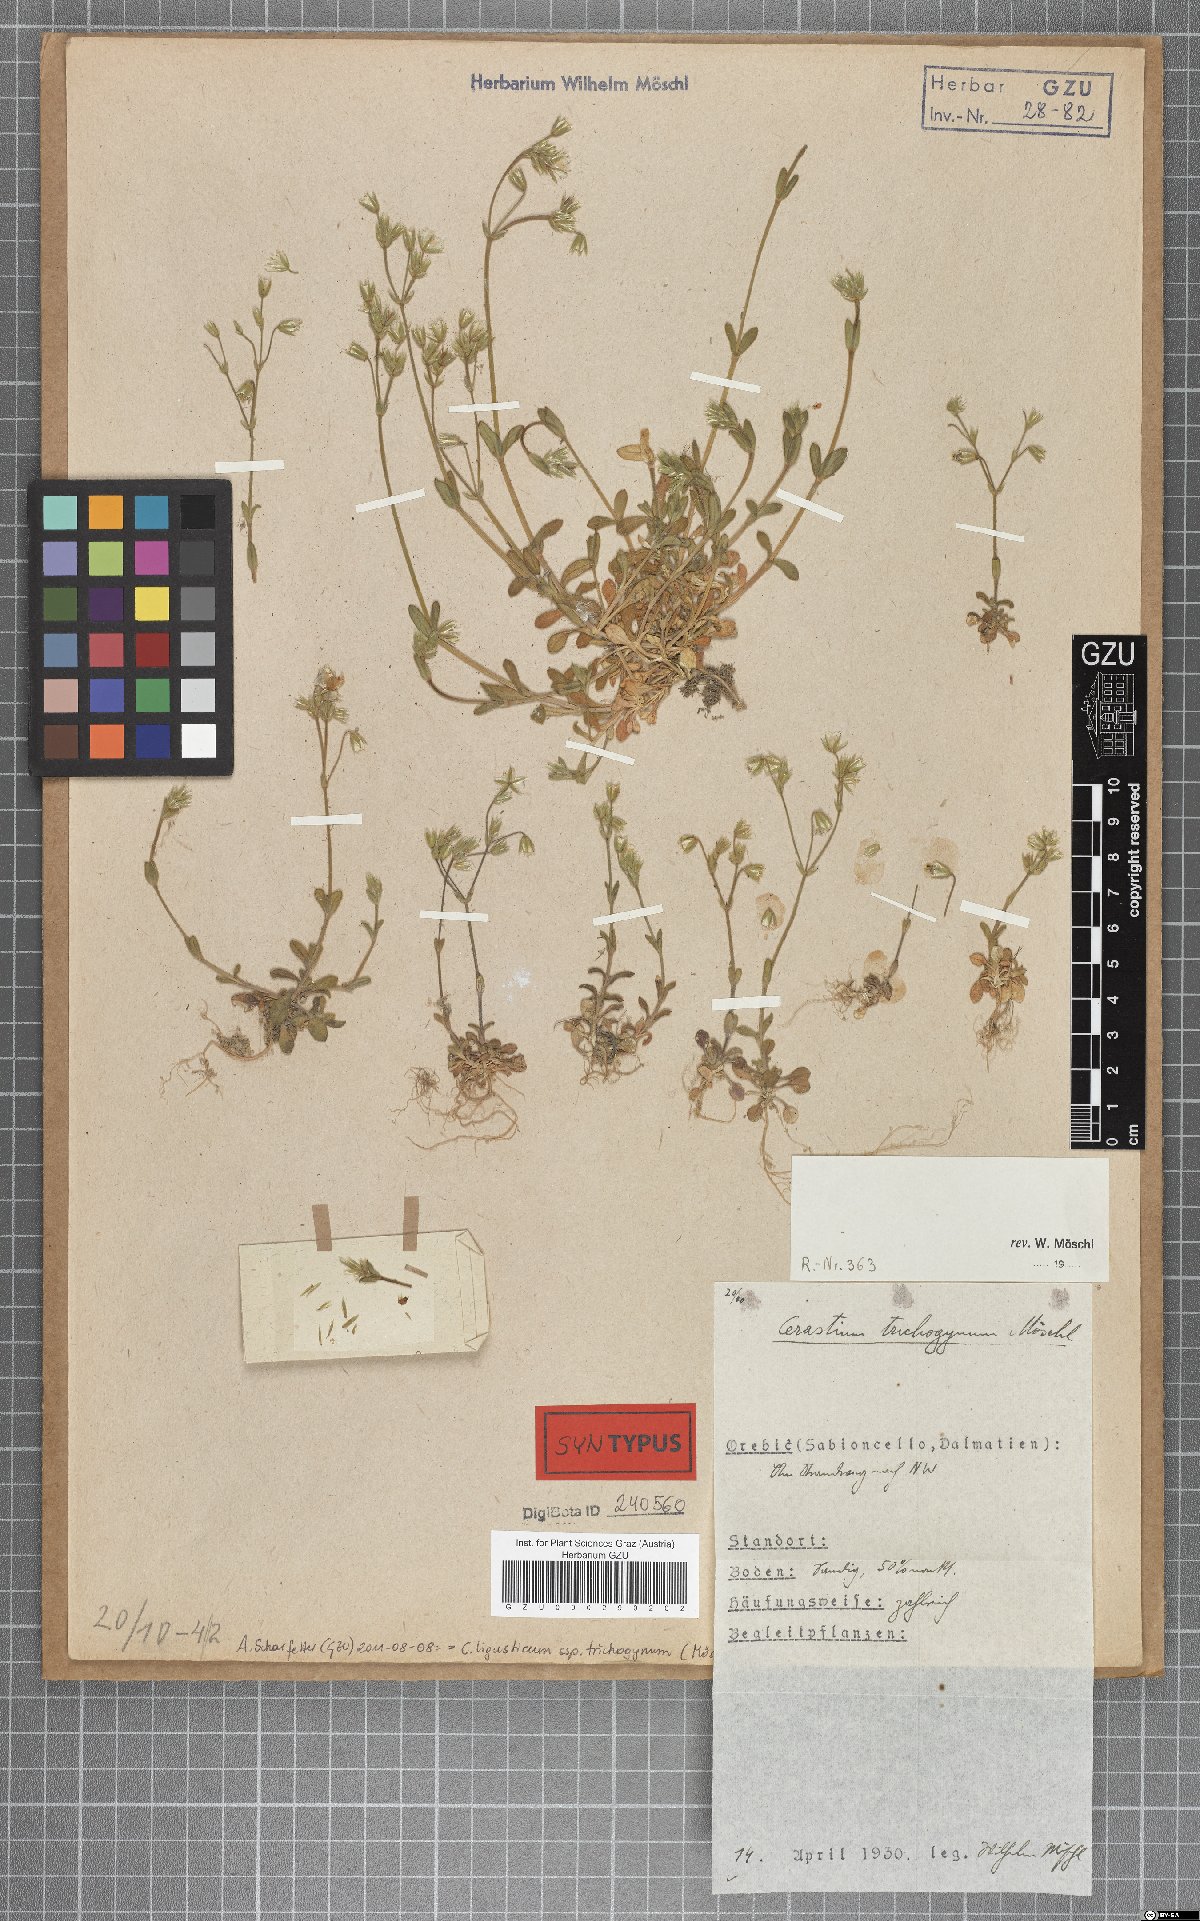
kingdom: Plantae
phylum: Tracheophyta
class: Magnoliopsida
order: Caryophyllales
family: Caryophyllaceae
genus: Cerastium
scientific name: Cerastium ligusticum
